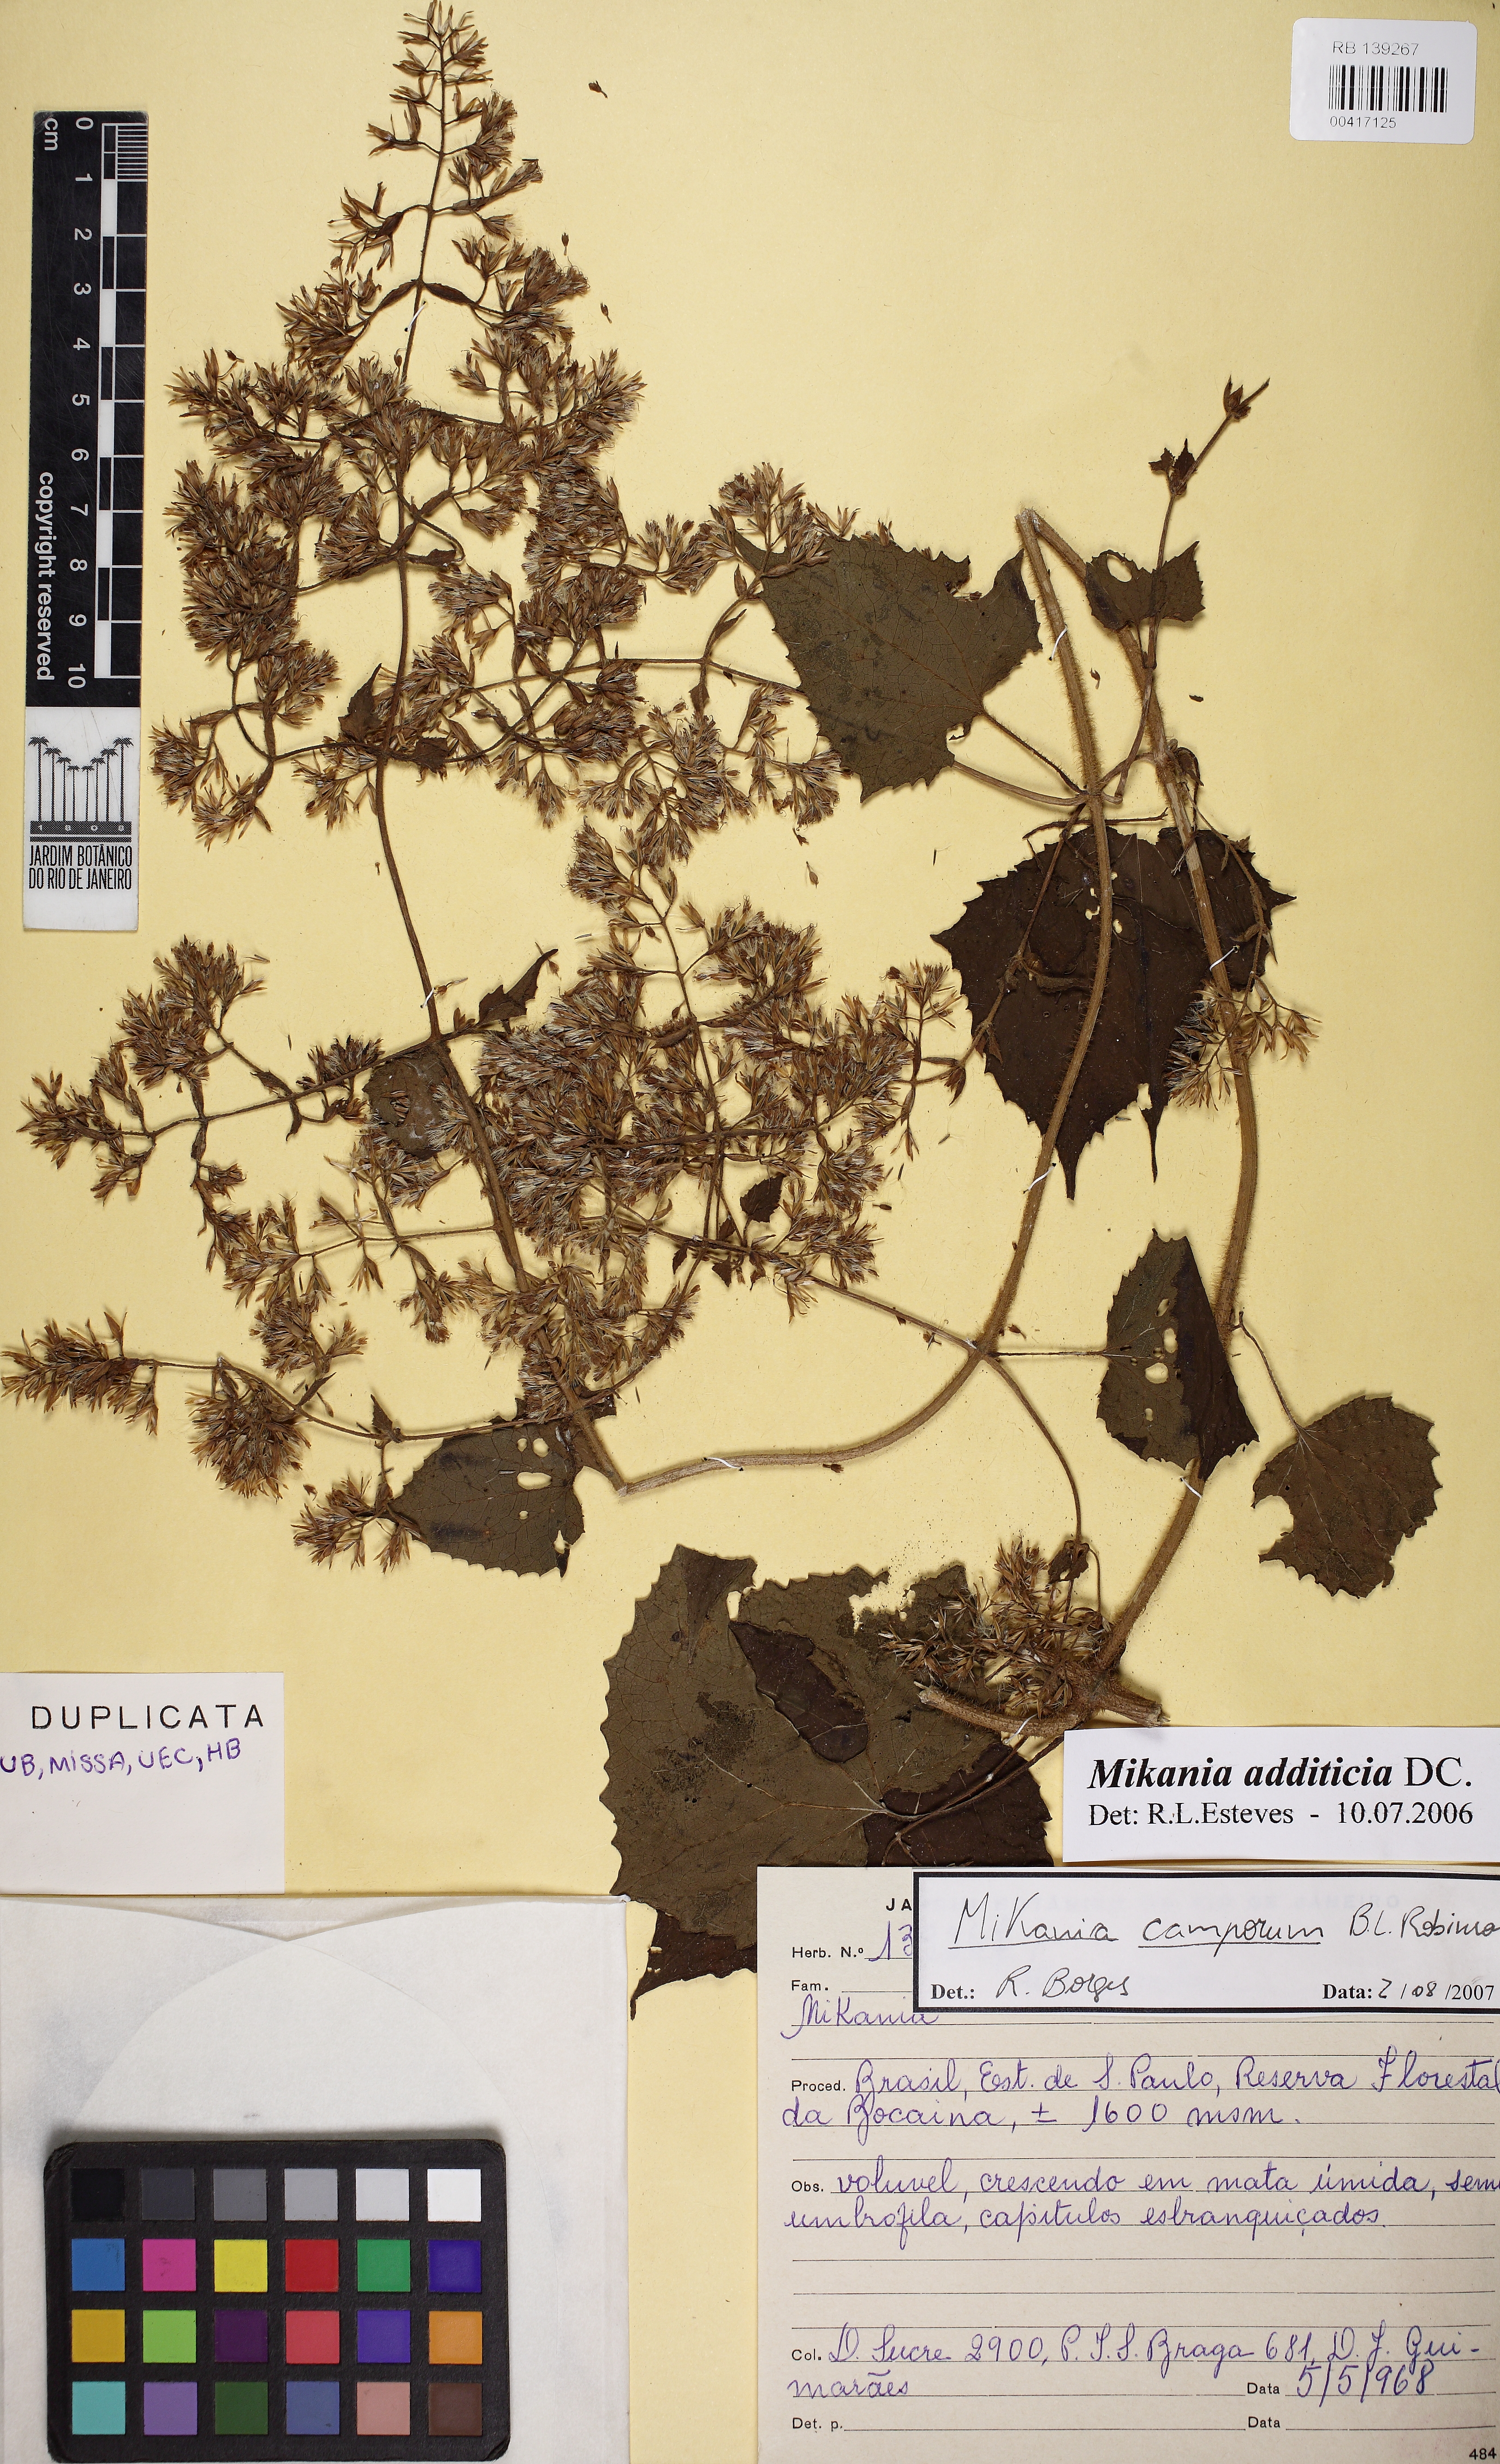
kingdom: Plantae
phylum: Tracheophyta
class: Magnoliopsida
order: Asterales
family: Asteraceae
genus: Mikania
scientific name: Mikania camporum
